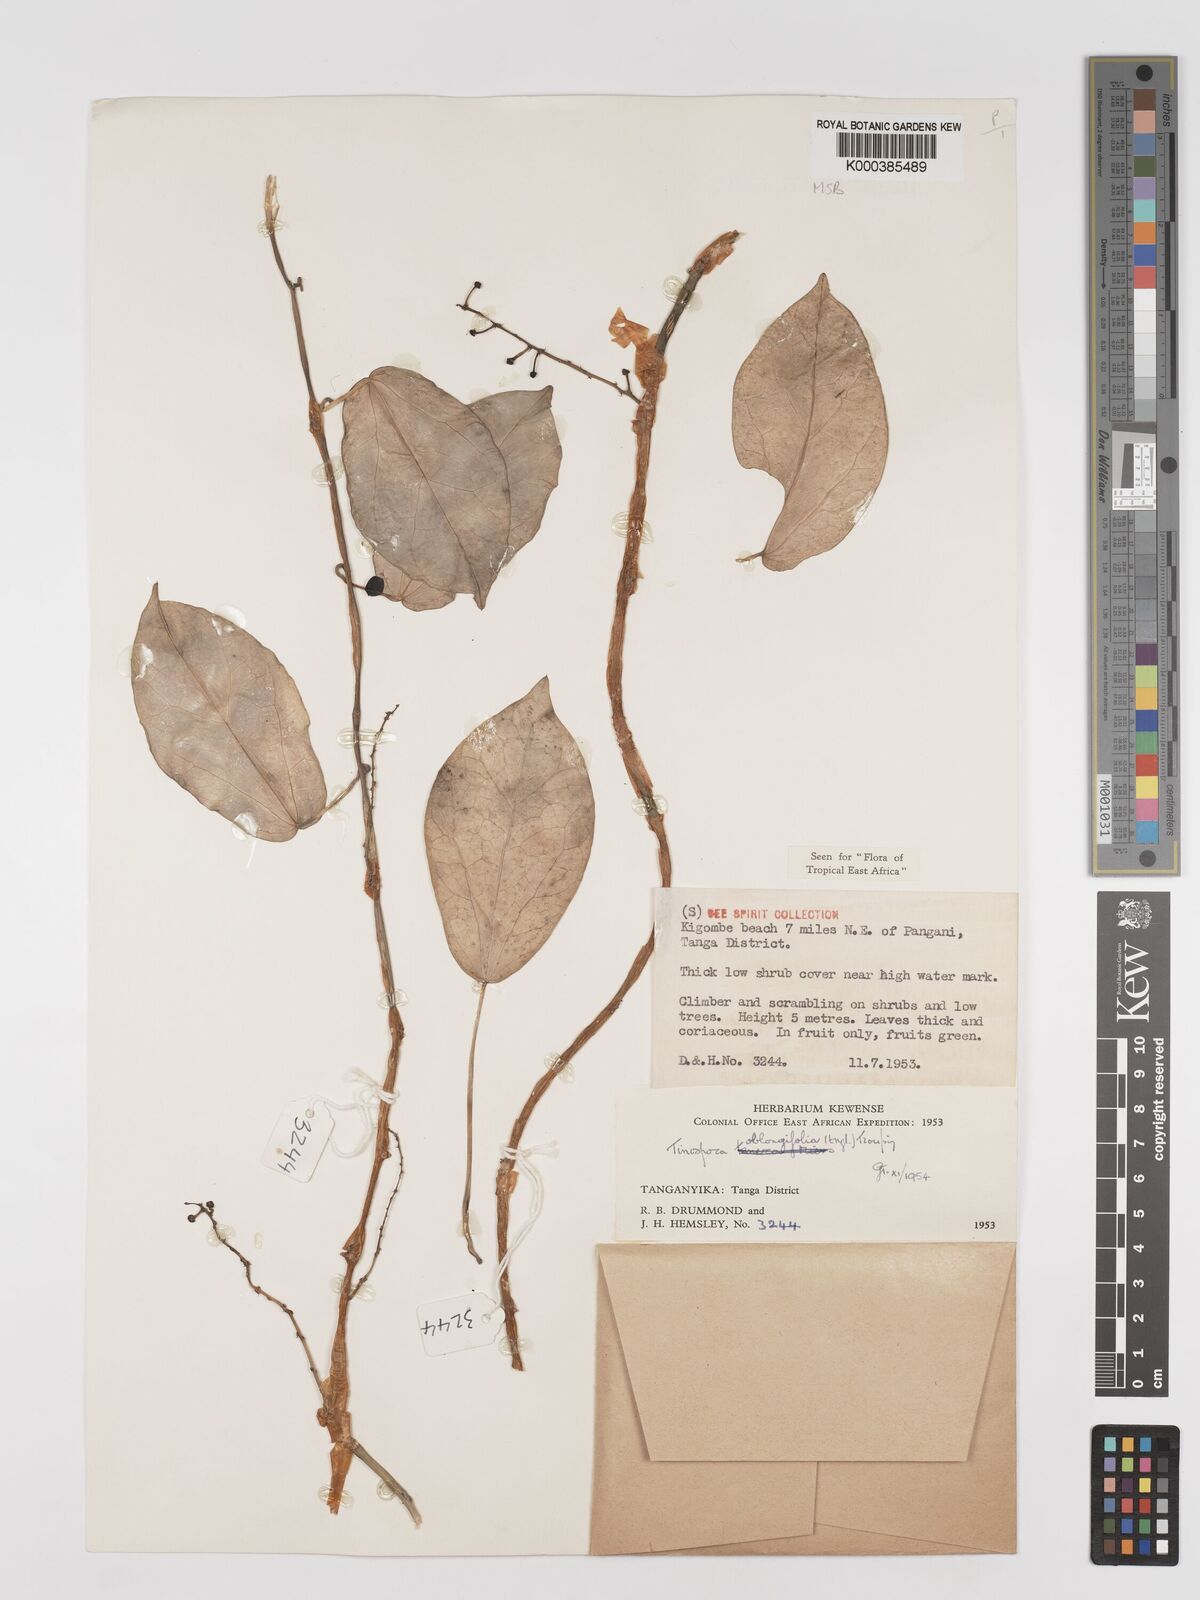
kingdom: Plantae
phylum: Tracheophyta
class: Magnoliopsida
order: Ranunculales
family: Menispermaceae
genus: Tinospora
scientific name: Tinospora oblongifolia
